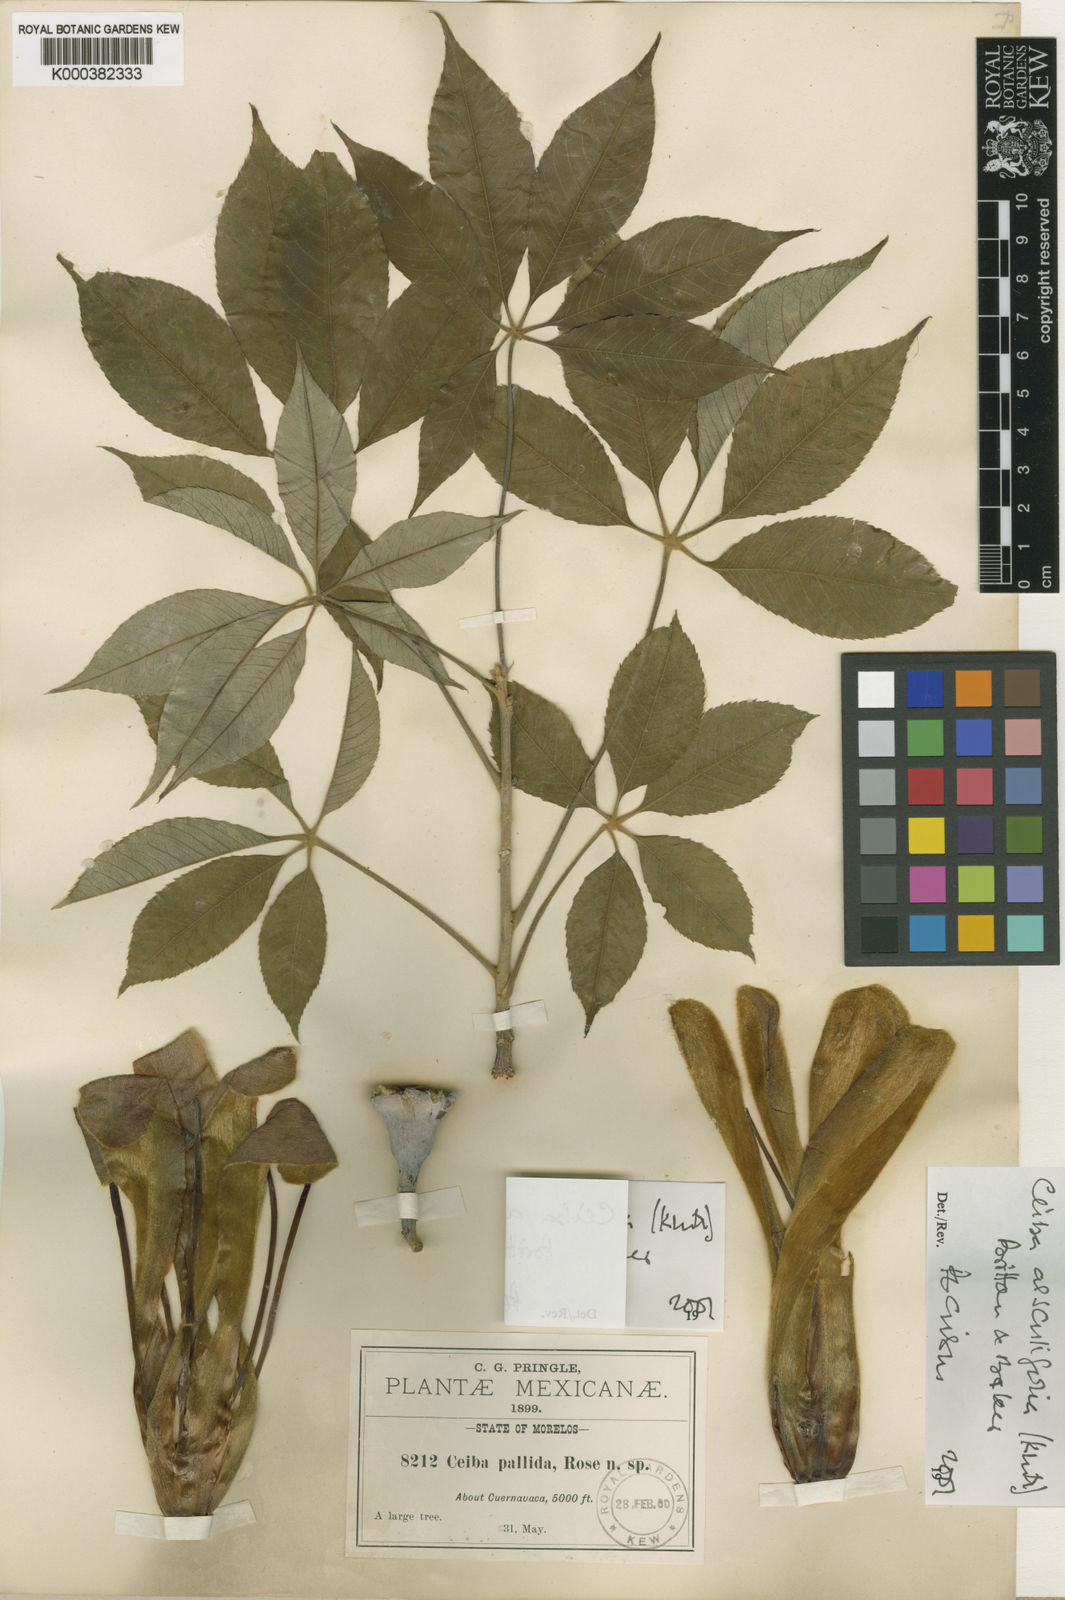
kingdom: Plantae
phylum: Tracheophyta
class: Magnoliopsida
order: Malvales
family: Malvaceae
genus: Ceiba
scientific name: Ceiba aesculifolia
